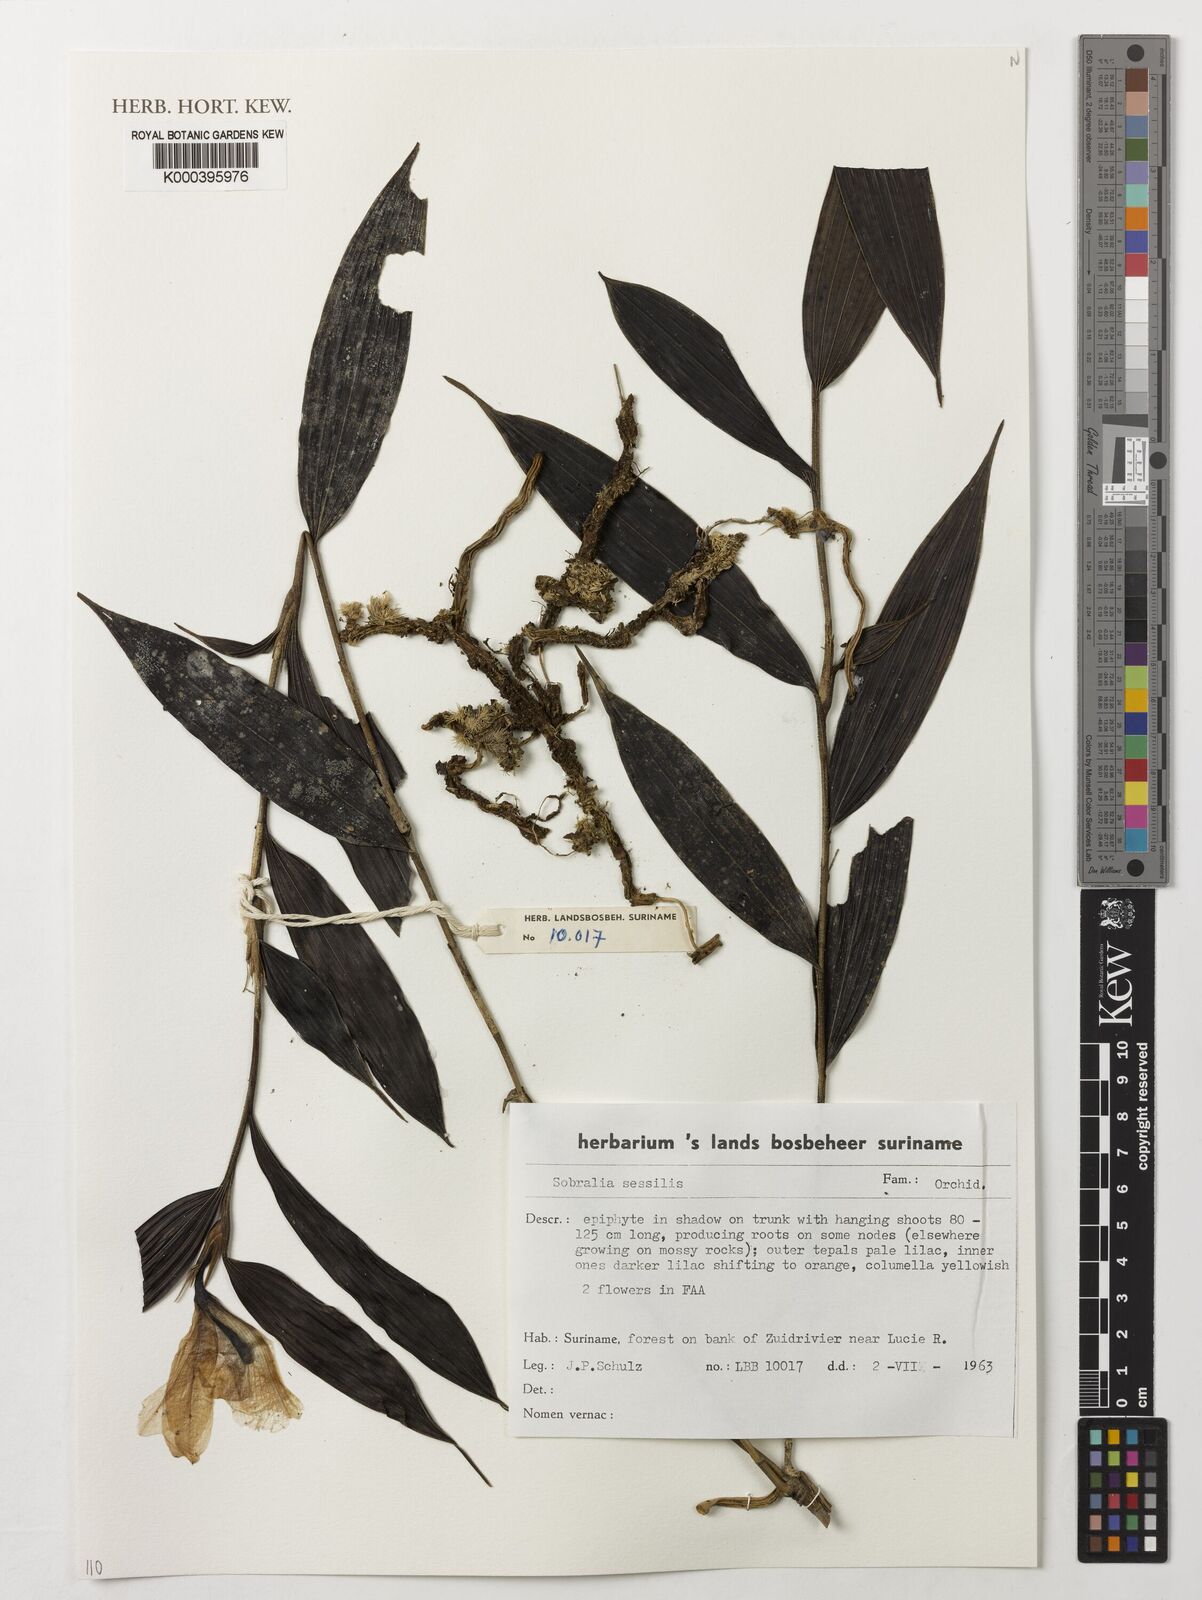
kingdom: Plantae
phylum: Tracheophyta
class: Liliopsida
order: Asparagales
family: Orchidaceae
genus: Sobralia
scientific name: Sobralia sessilis
